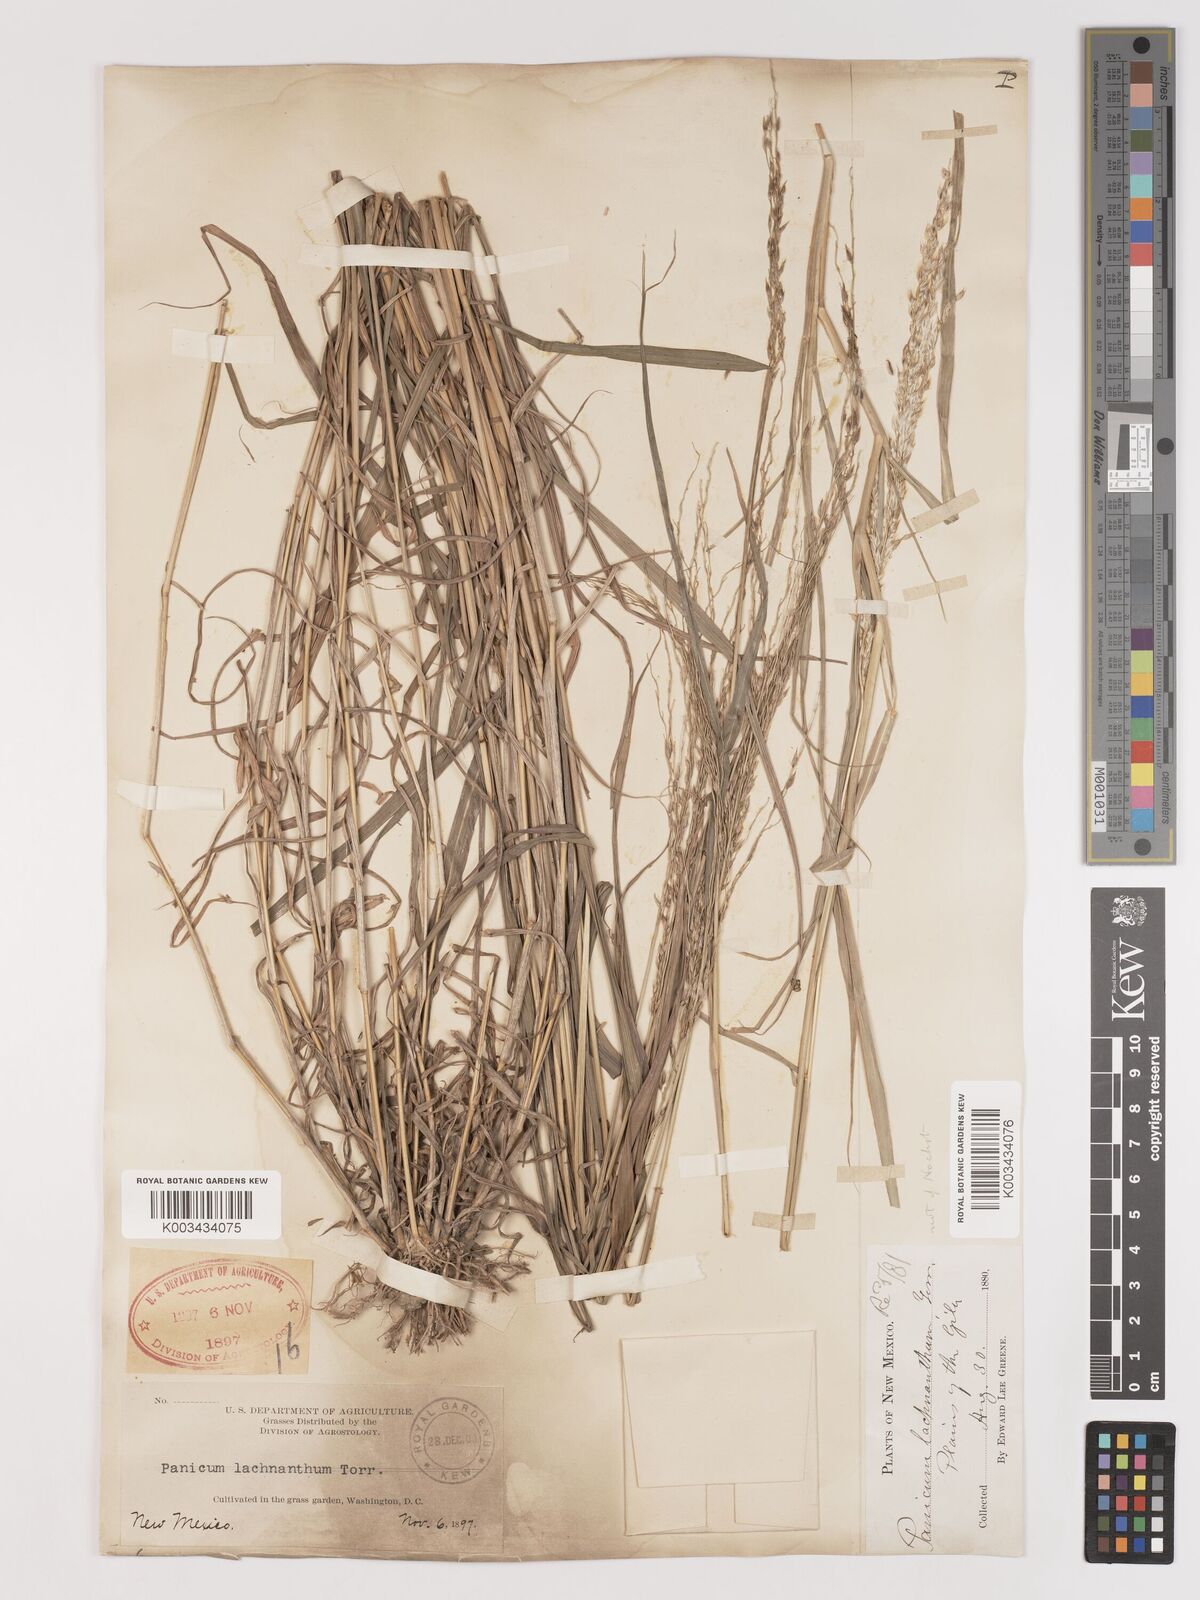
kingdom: Plantae
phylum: Tracheophyta
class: Liliopsida
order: Poales
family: Poaceae
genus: Digitaria
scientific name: Digitaria californica
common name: Arizona cottontop
